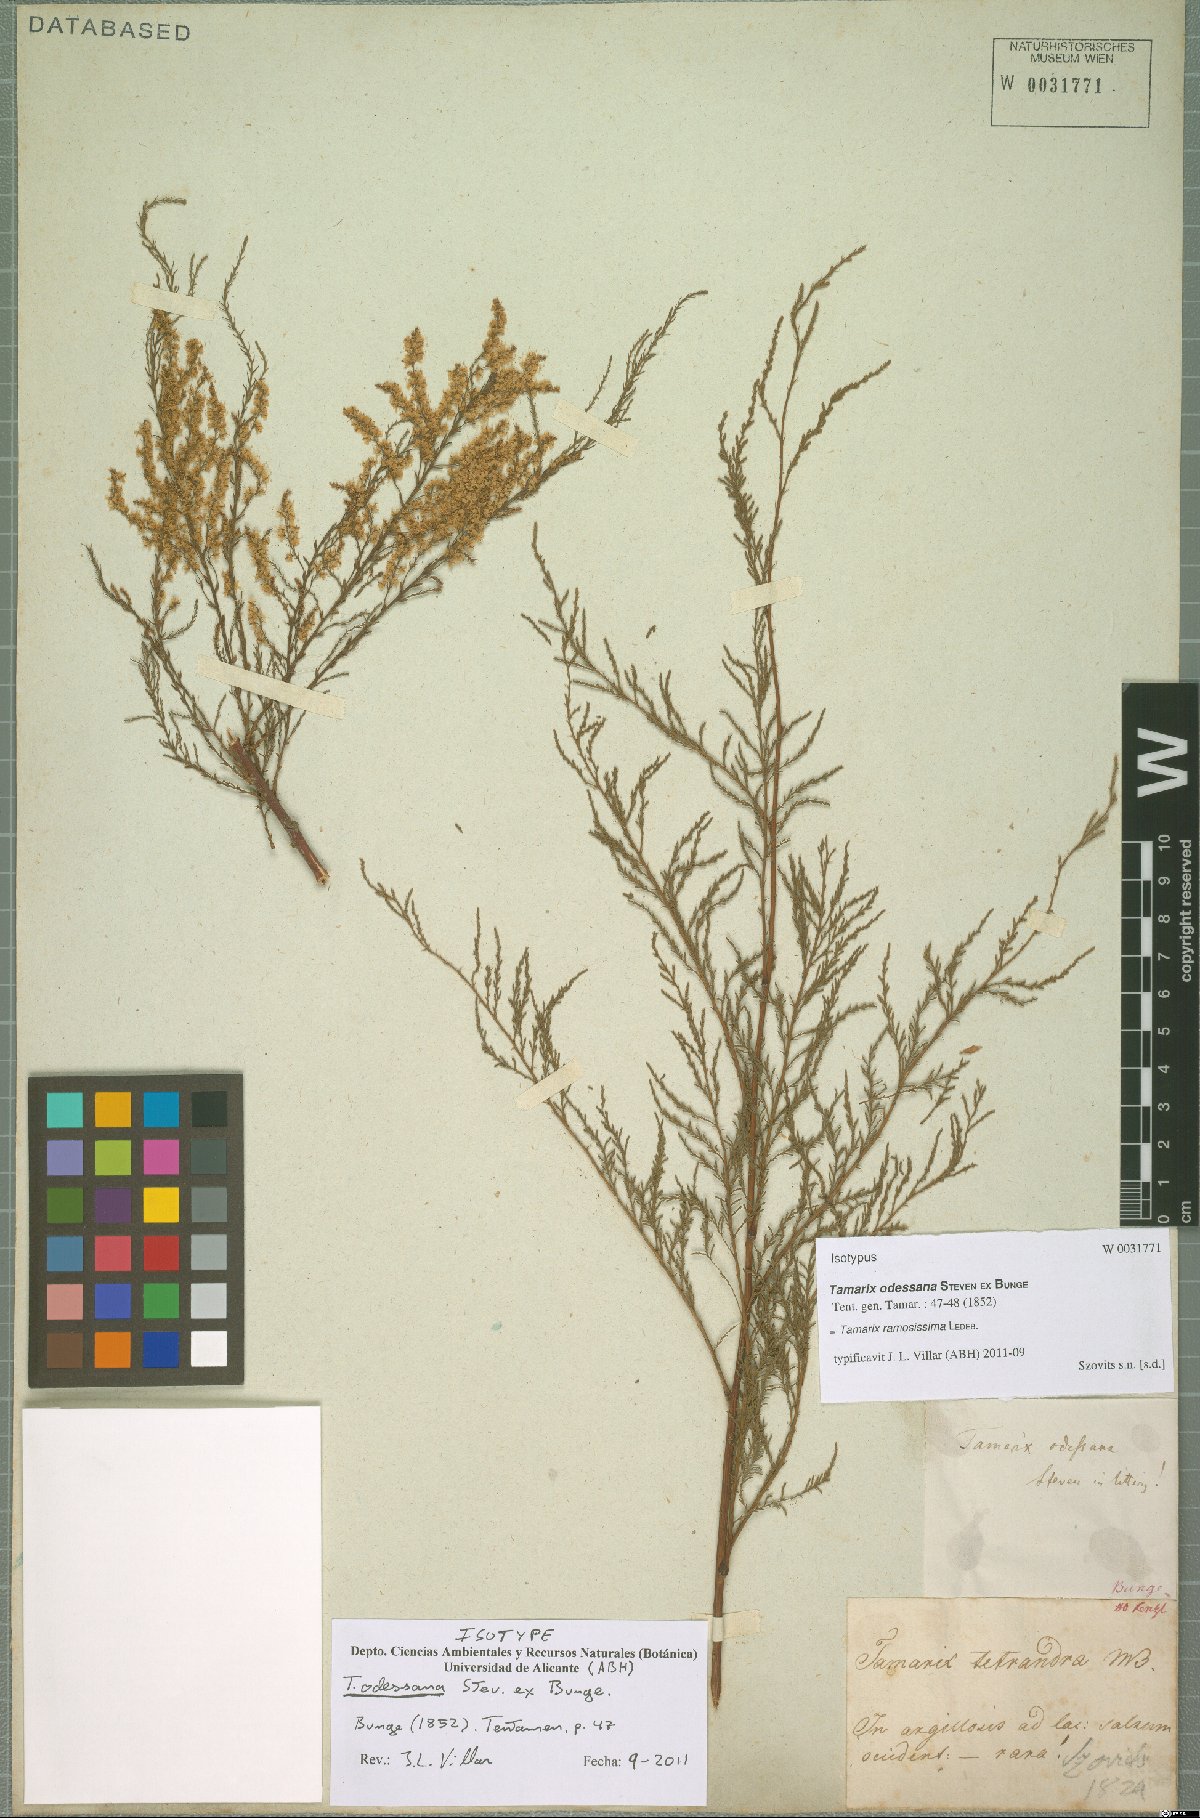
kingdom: Plantae
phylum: Tracheophyta
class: Magnoliopsida
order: Caryophyllales
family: Tamaricaceae
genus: Tamarix
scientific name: Tamarix ramosissima
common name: Pink tamarisk
